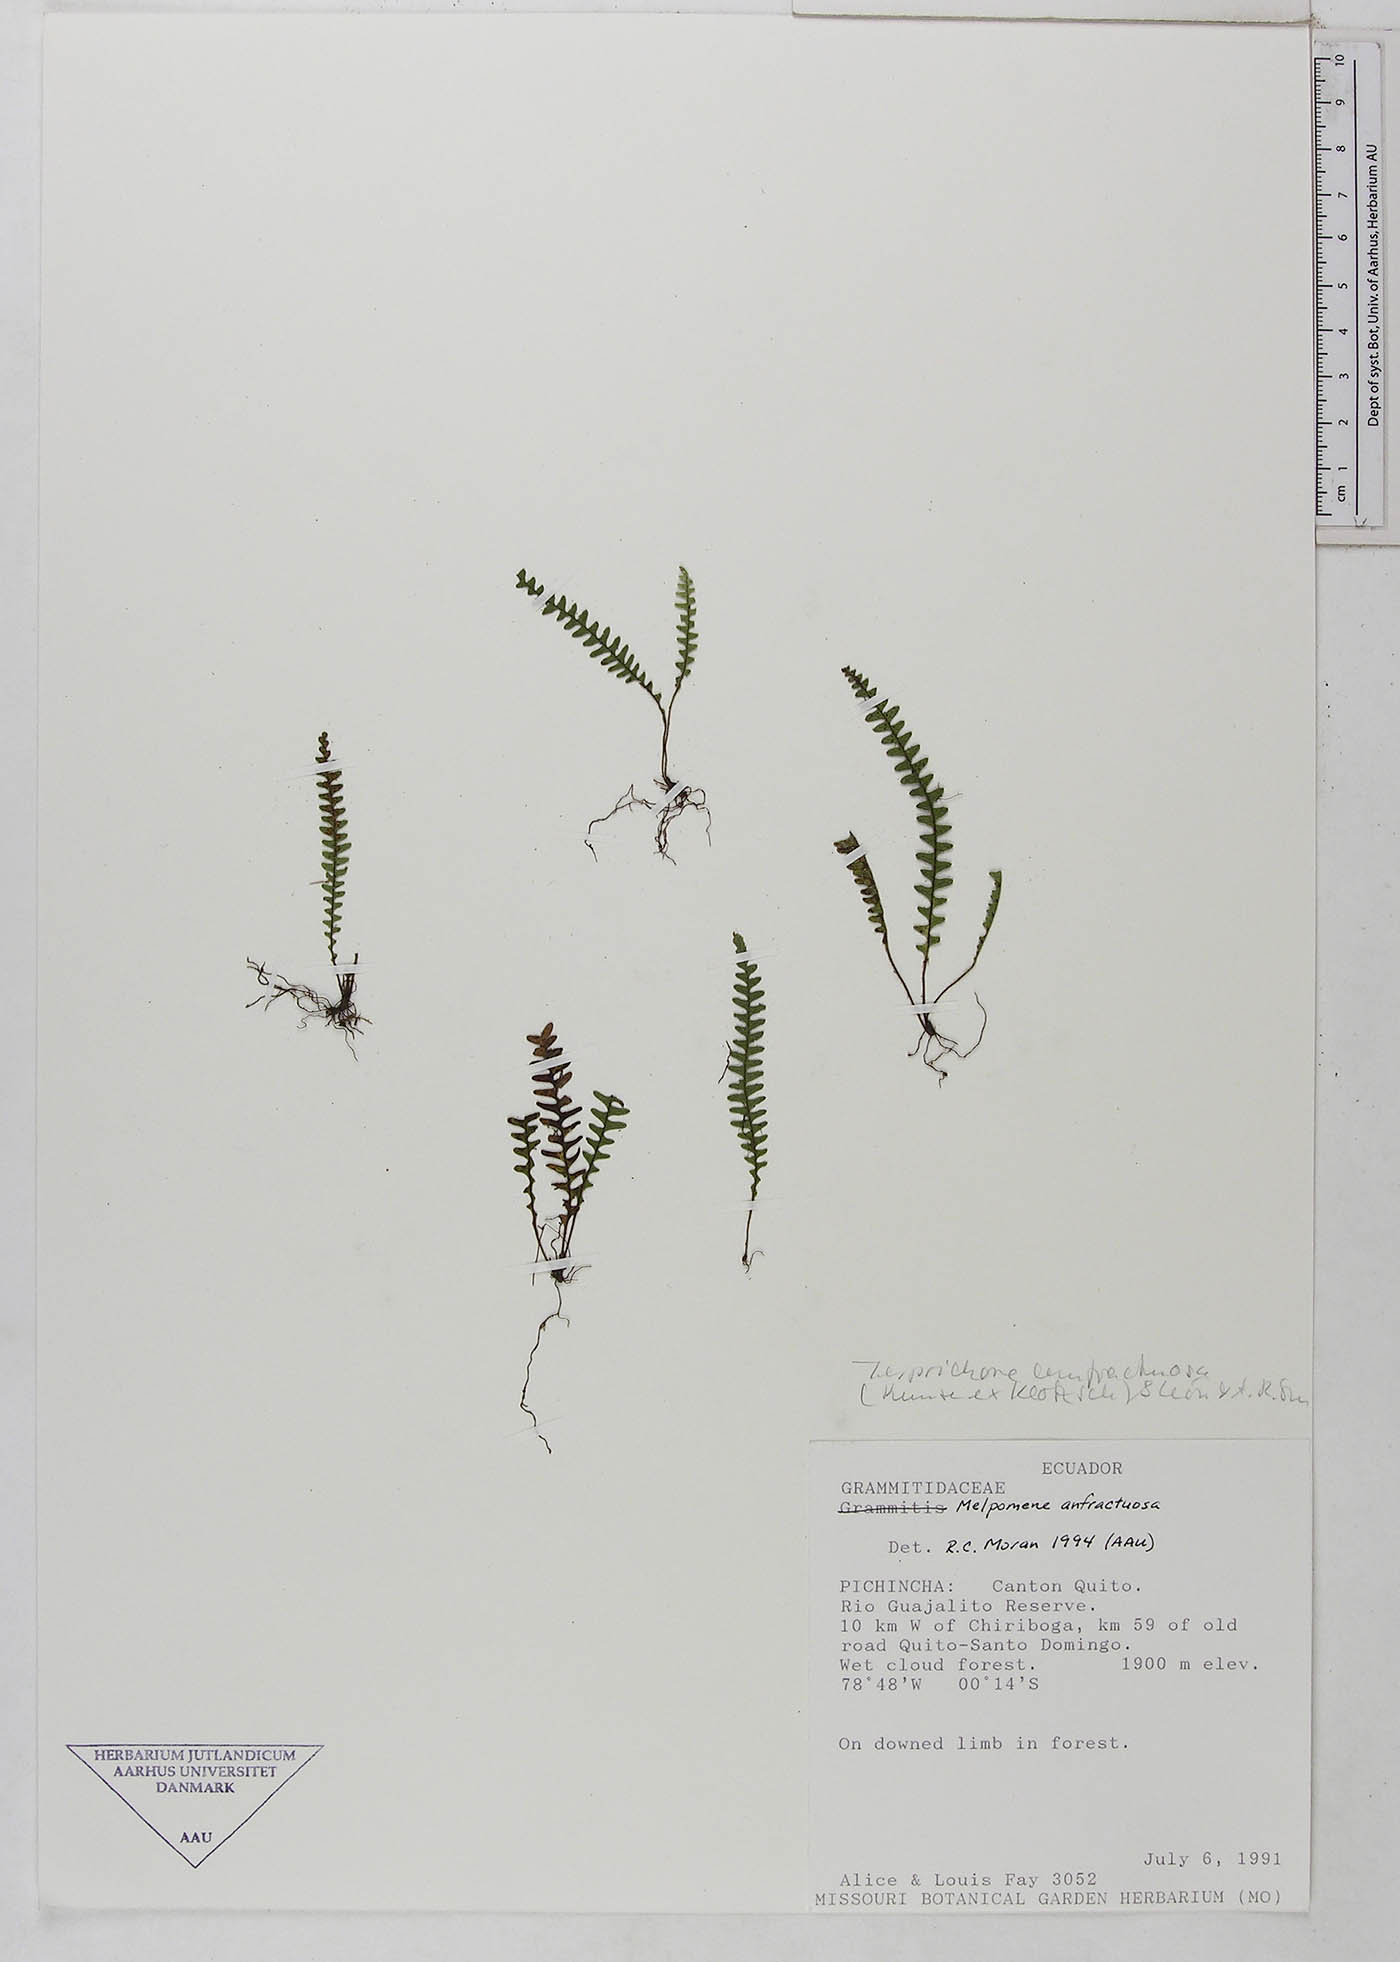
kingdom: Plantae
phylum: Tracheophyta
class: Polypodiopsida
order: Polypodiales
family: Polypodiaceae
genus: Ascogrammitis
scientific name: Ascogrammitis anfractuosa
